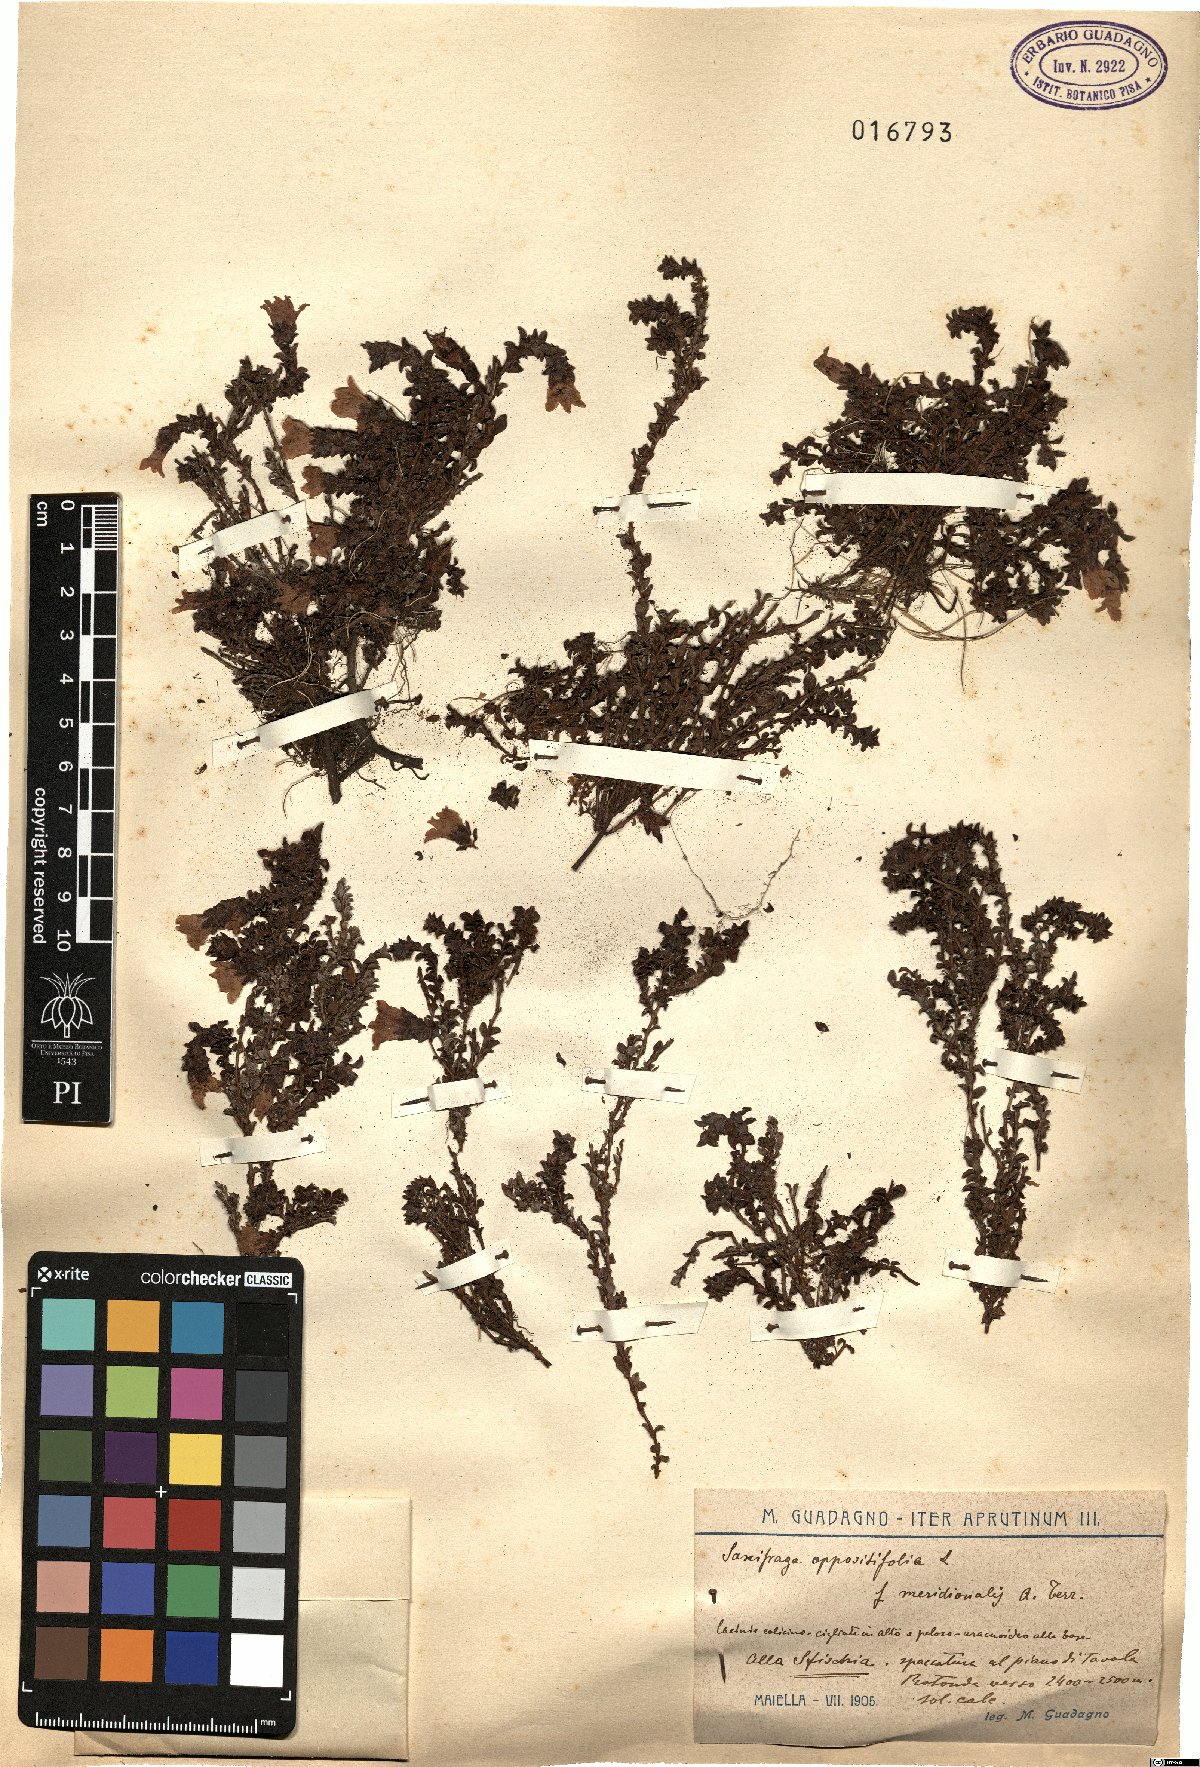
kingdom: Plantae
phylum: Tracheophyta
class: Magnoliopsida
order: Saxifragales
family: Saxifragaceae
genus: Saxifraga
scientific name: Saxifraga oppositifolia
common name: Purple saxifrage
